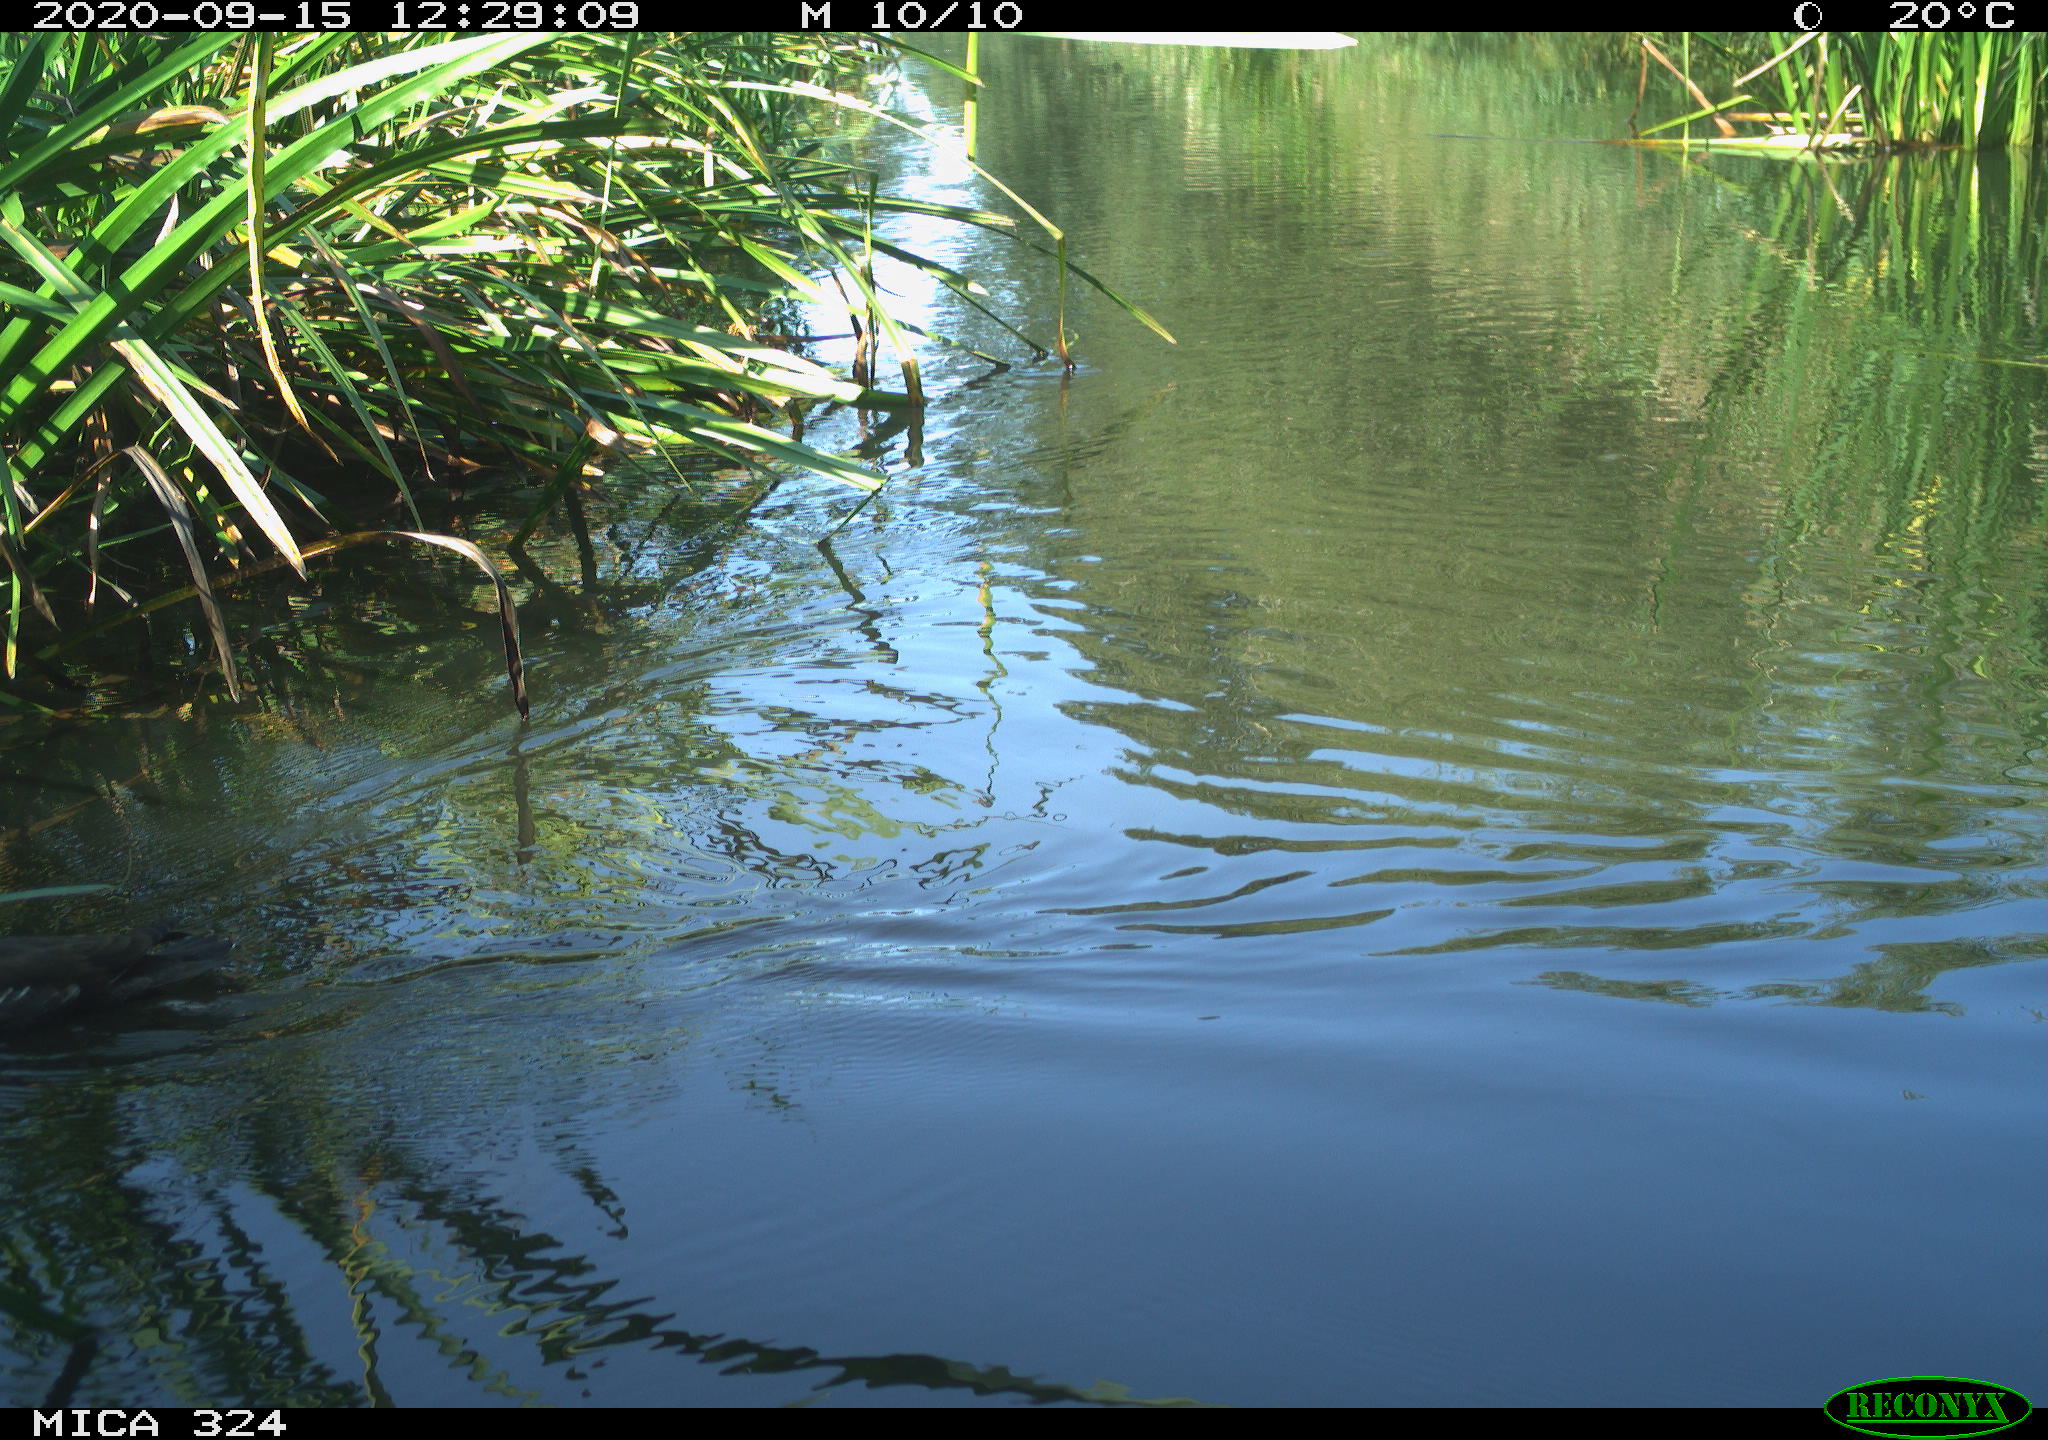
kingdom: Animalia
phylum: Chordata
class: Aves
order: Gruiformes
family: Rallidae
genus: Gallinula
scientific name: Gallinula chloropus
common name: Common moorhen
